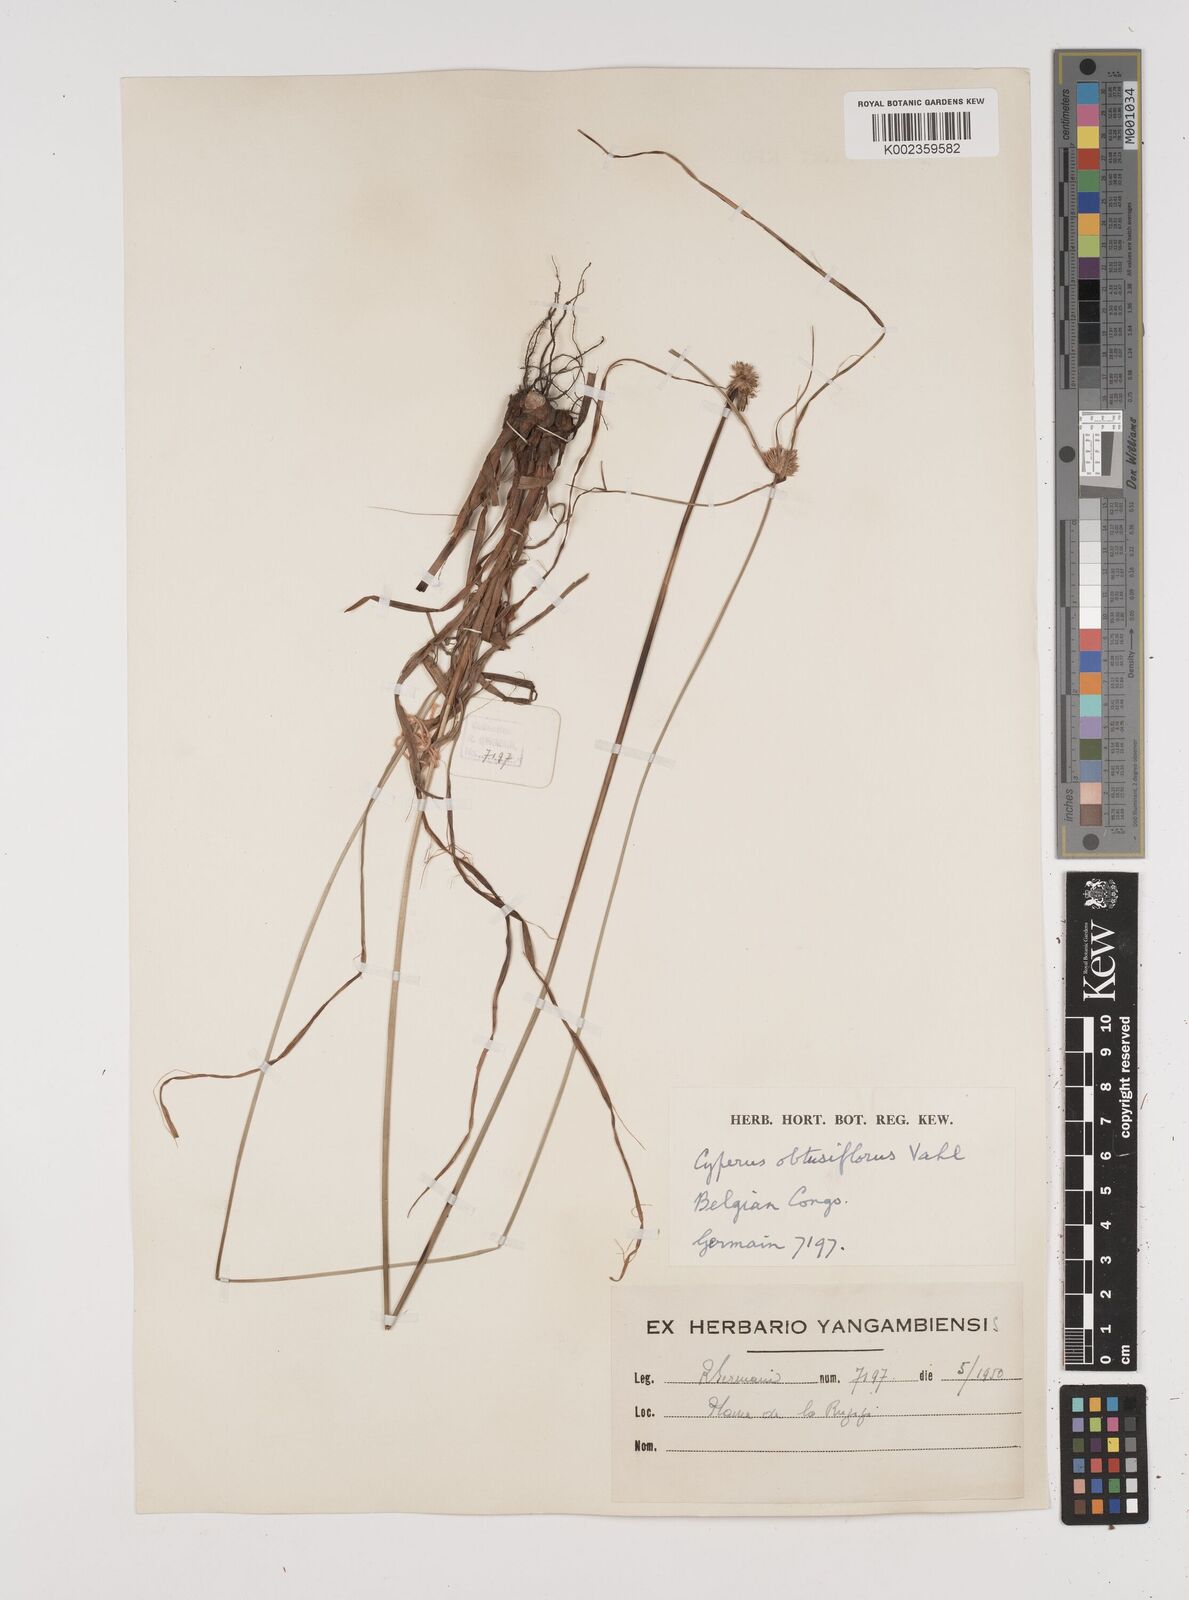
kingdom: Plantae
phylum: Tracheophyta
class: Liliopsida
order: Poales
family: Cyperaceae
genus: Cyperus
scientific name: Cyperus niveus
